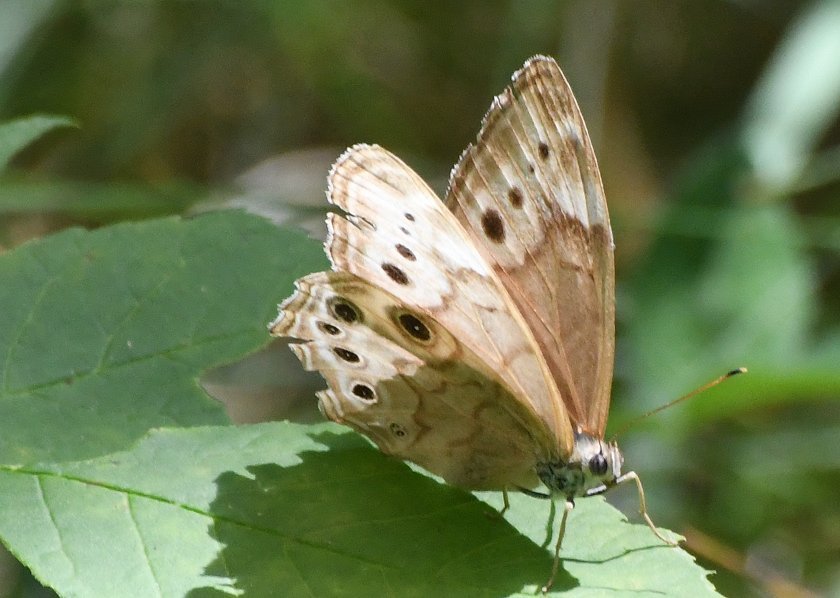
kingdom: Animalia
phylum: Arthropoda
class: Insecta
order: Lepidoptera
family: Nymphalidae
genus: Lethe
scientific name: Lethe anthedon
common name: Northern Pearly-Eye
